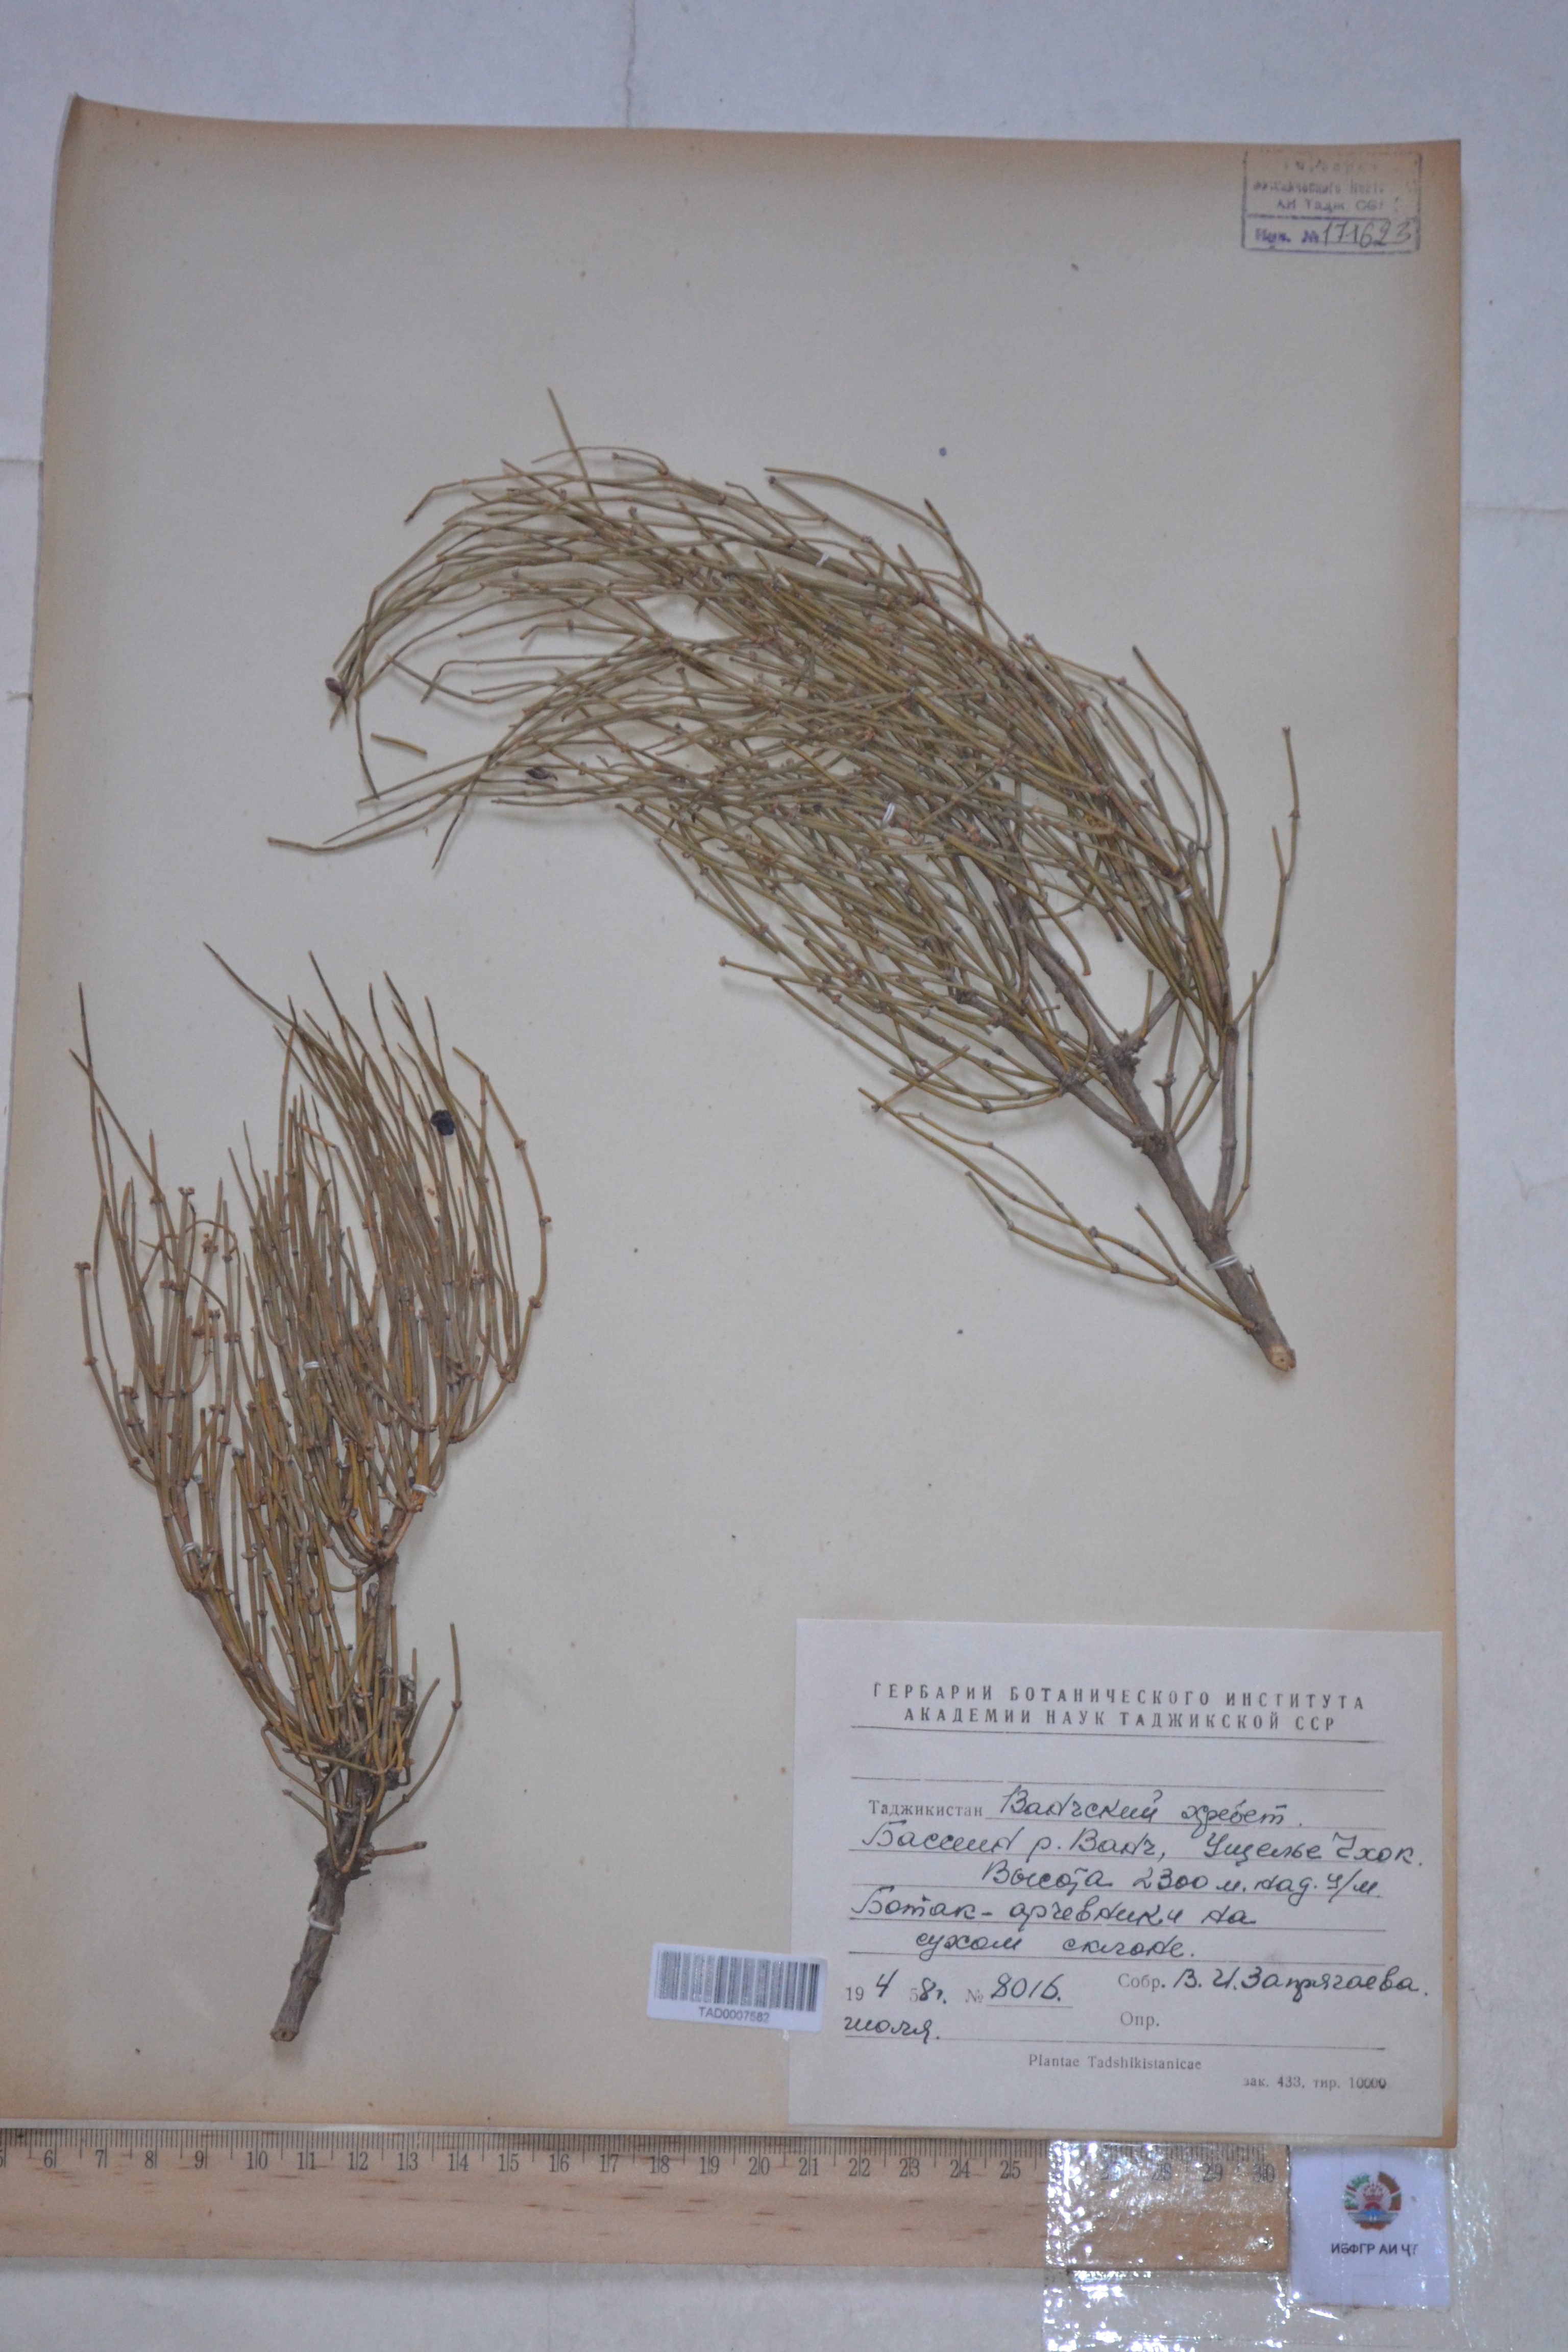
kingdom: Plantae
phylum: Tracheophyta
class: Gnetopsida
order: Ephedrales
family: Ephedraceae
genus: Ephedra
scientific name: Ephedra gerardiana
